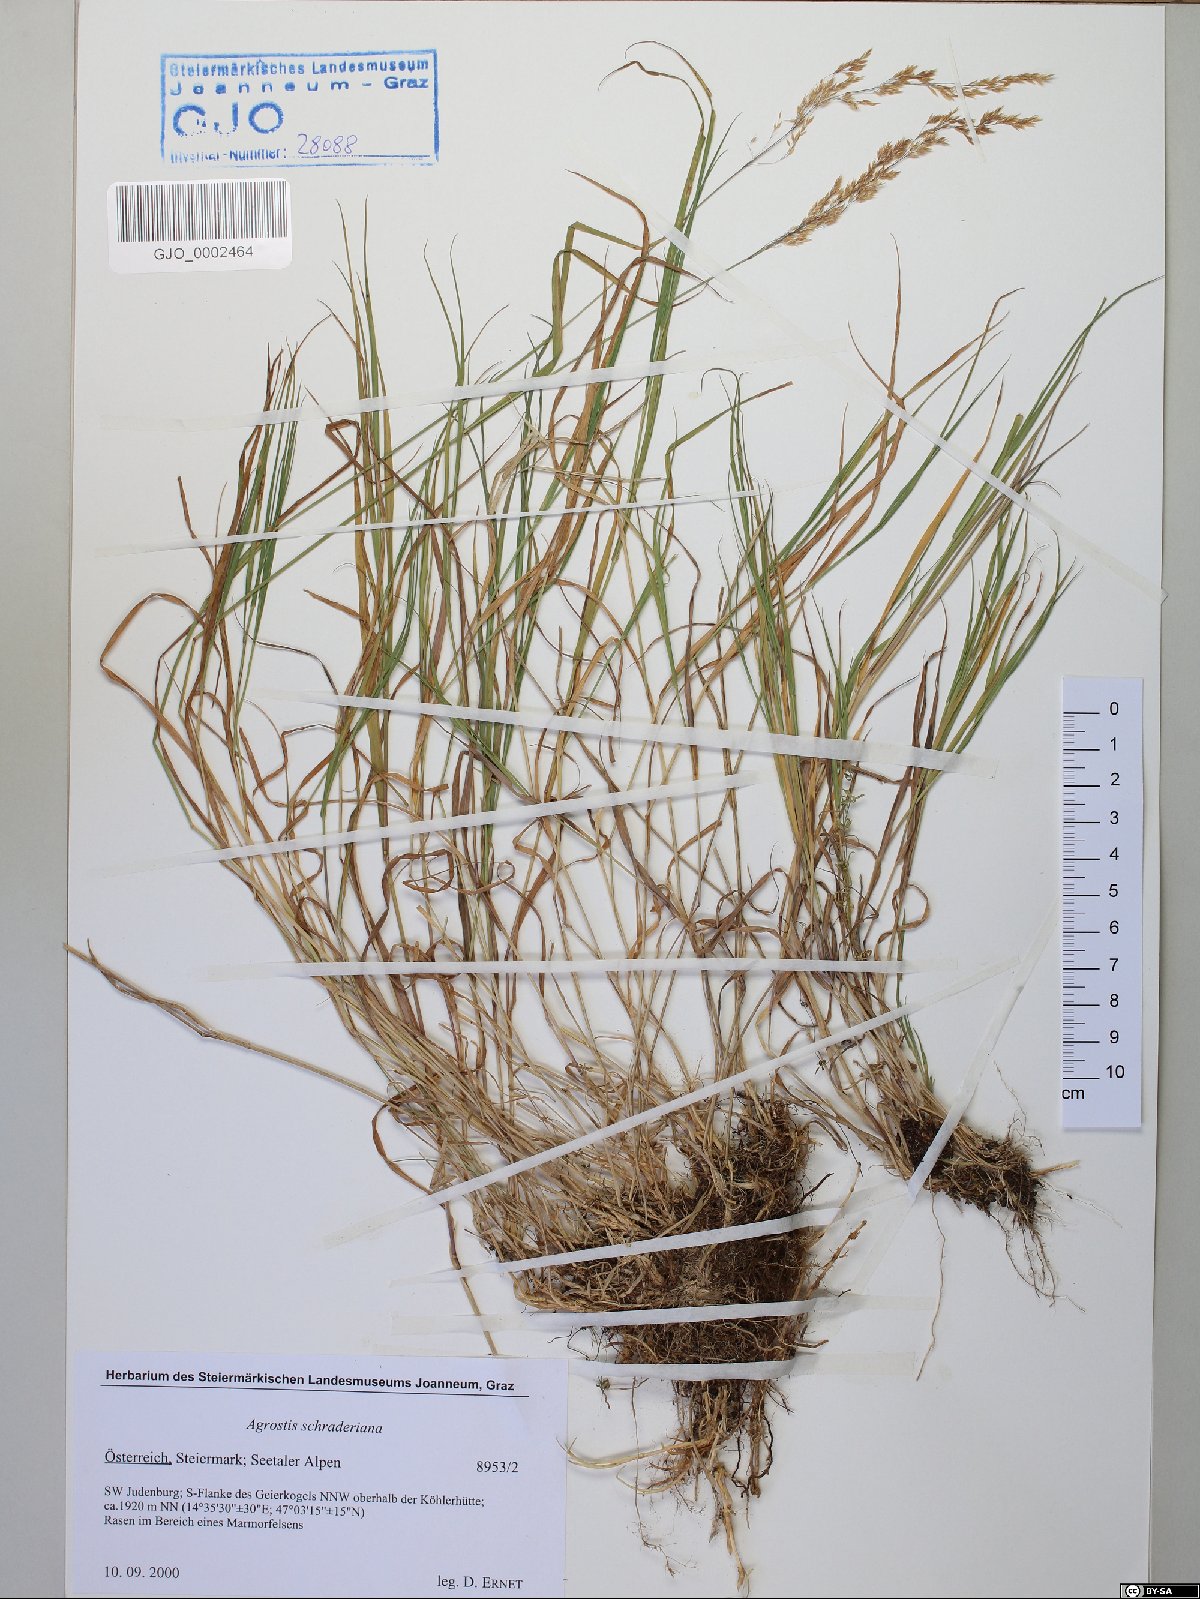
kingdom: Plantae
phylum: Tracheophyta
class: Liliopsida
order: Poales
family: Poaceae
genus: Agrostis
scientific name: Agrostis schraderiana
